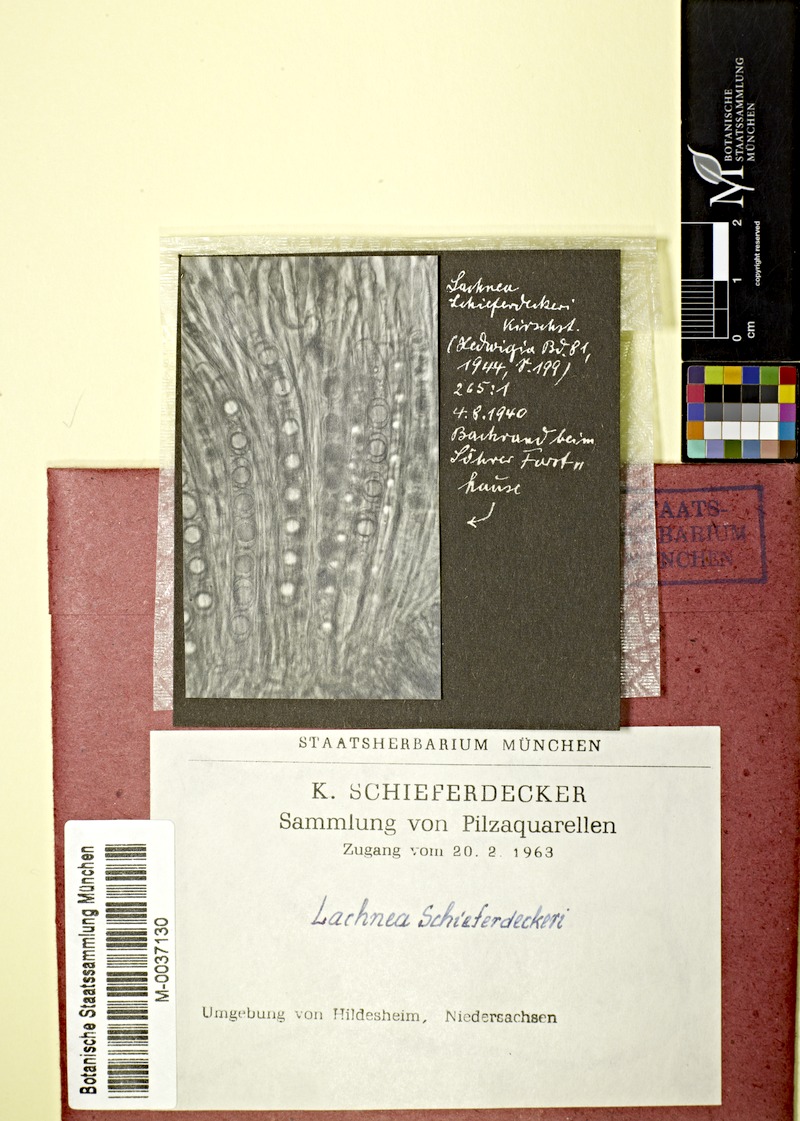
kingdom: Fungi
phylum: Ascomycota
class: Pezizomycetes
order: Pezizales
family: Pyronemataceae
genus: Lachnea
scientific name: Lachnea schieferdeckeri
